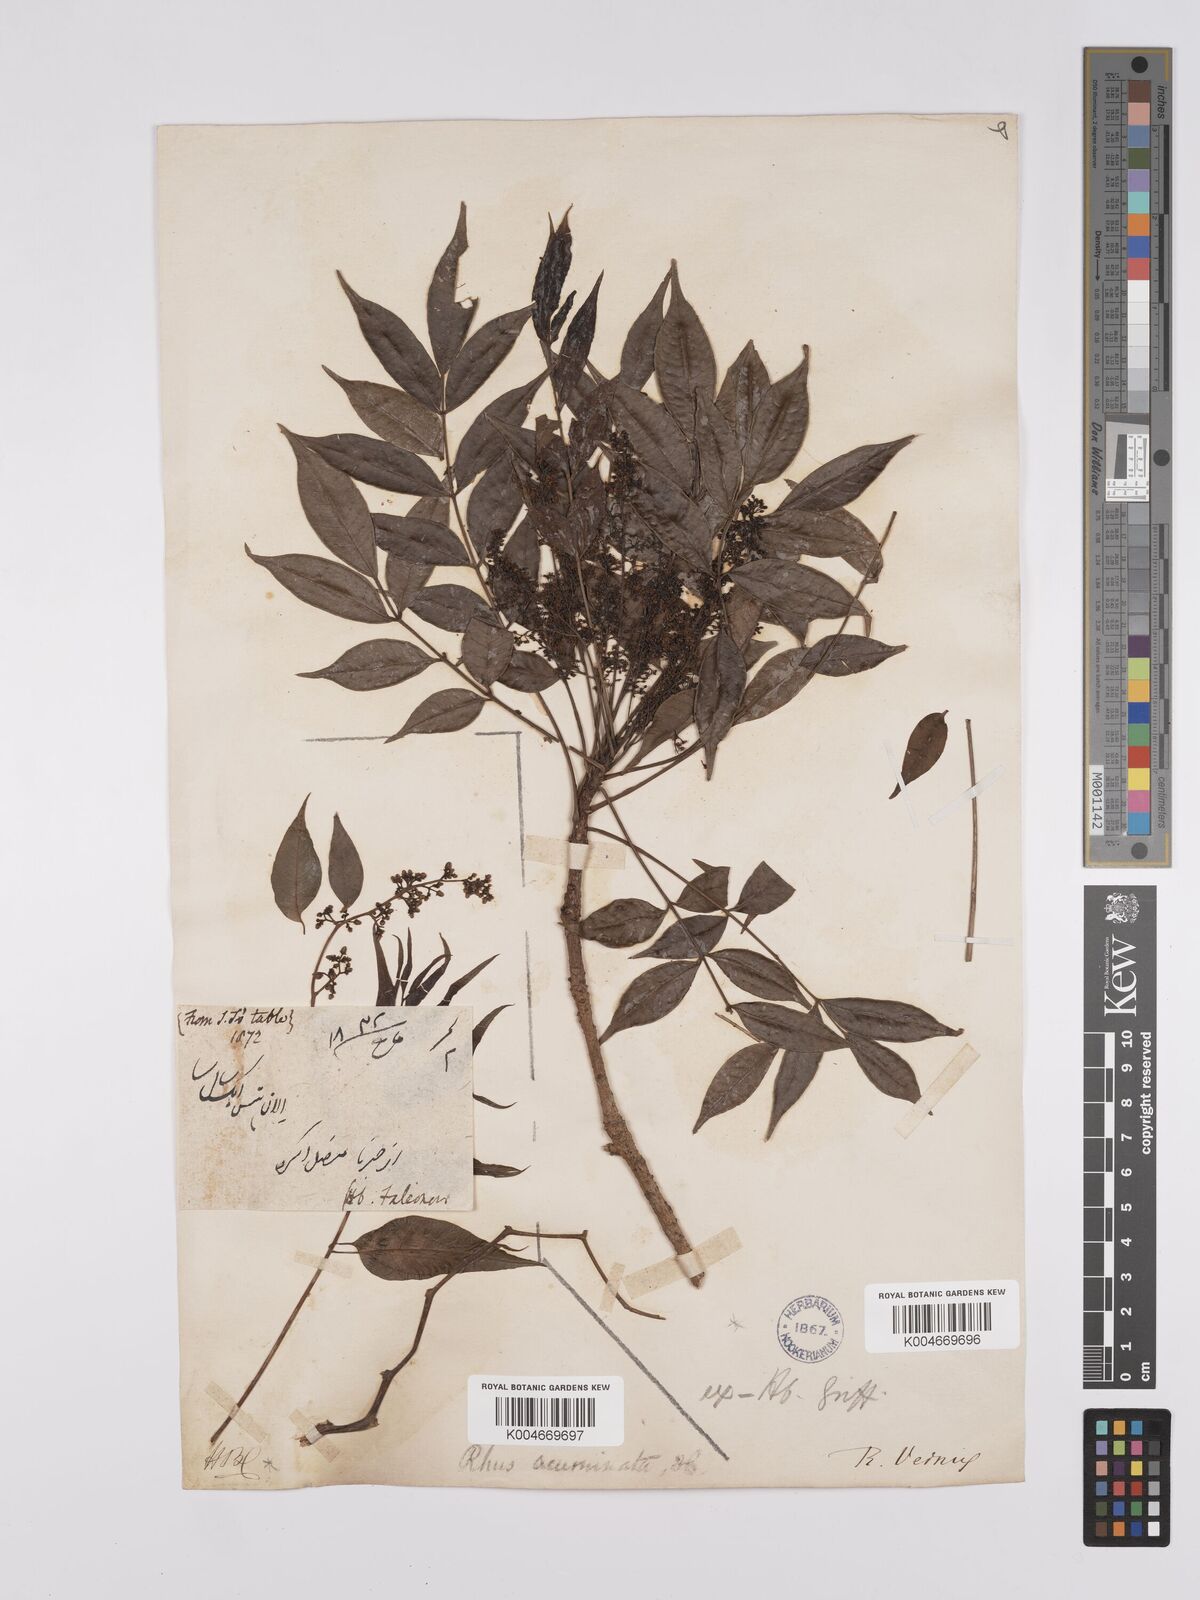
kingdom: Plantae
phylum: Tracheophyta
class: Magnoliopsida
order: Sapindales
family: Anacardiaceae
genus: Toxicodendron
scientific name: Toxicodendron succedaneum
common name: Wax tree
